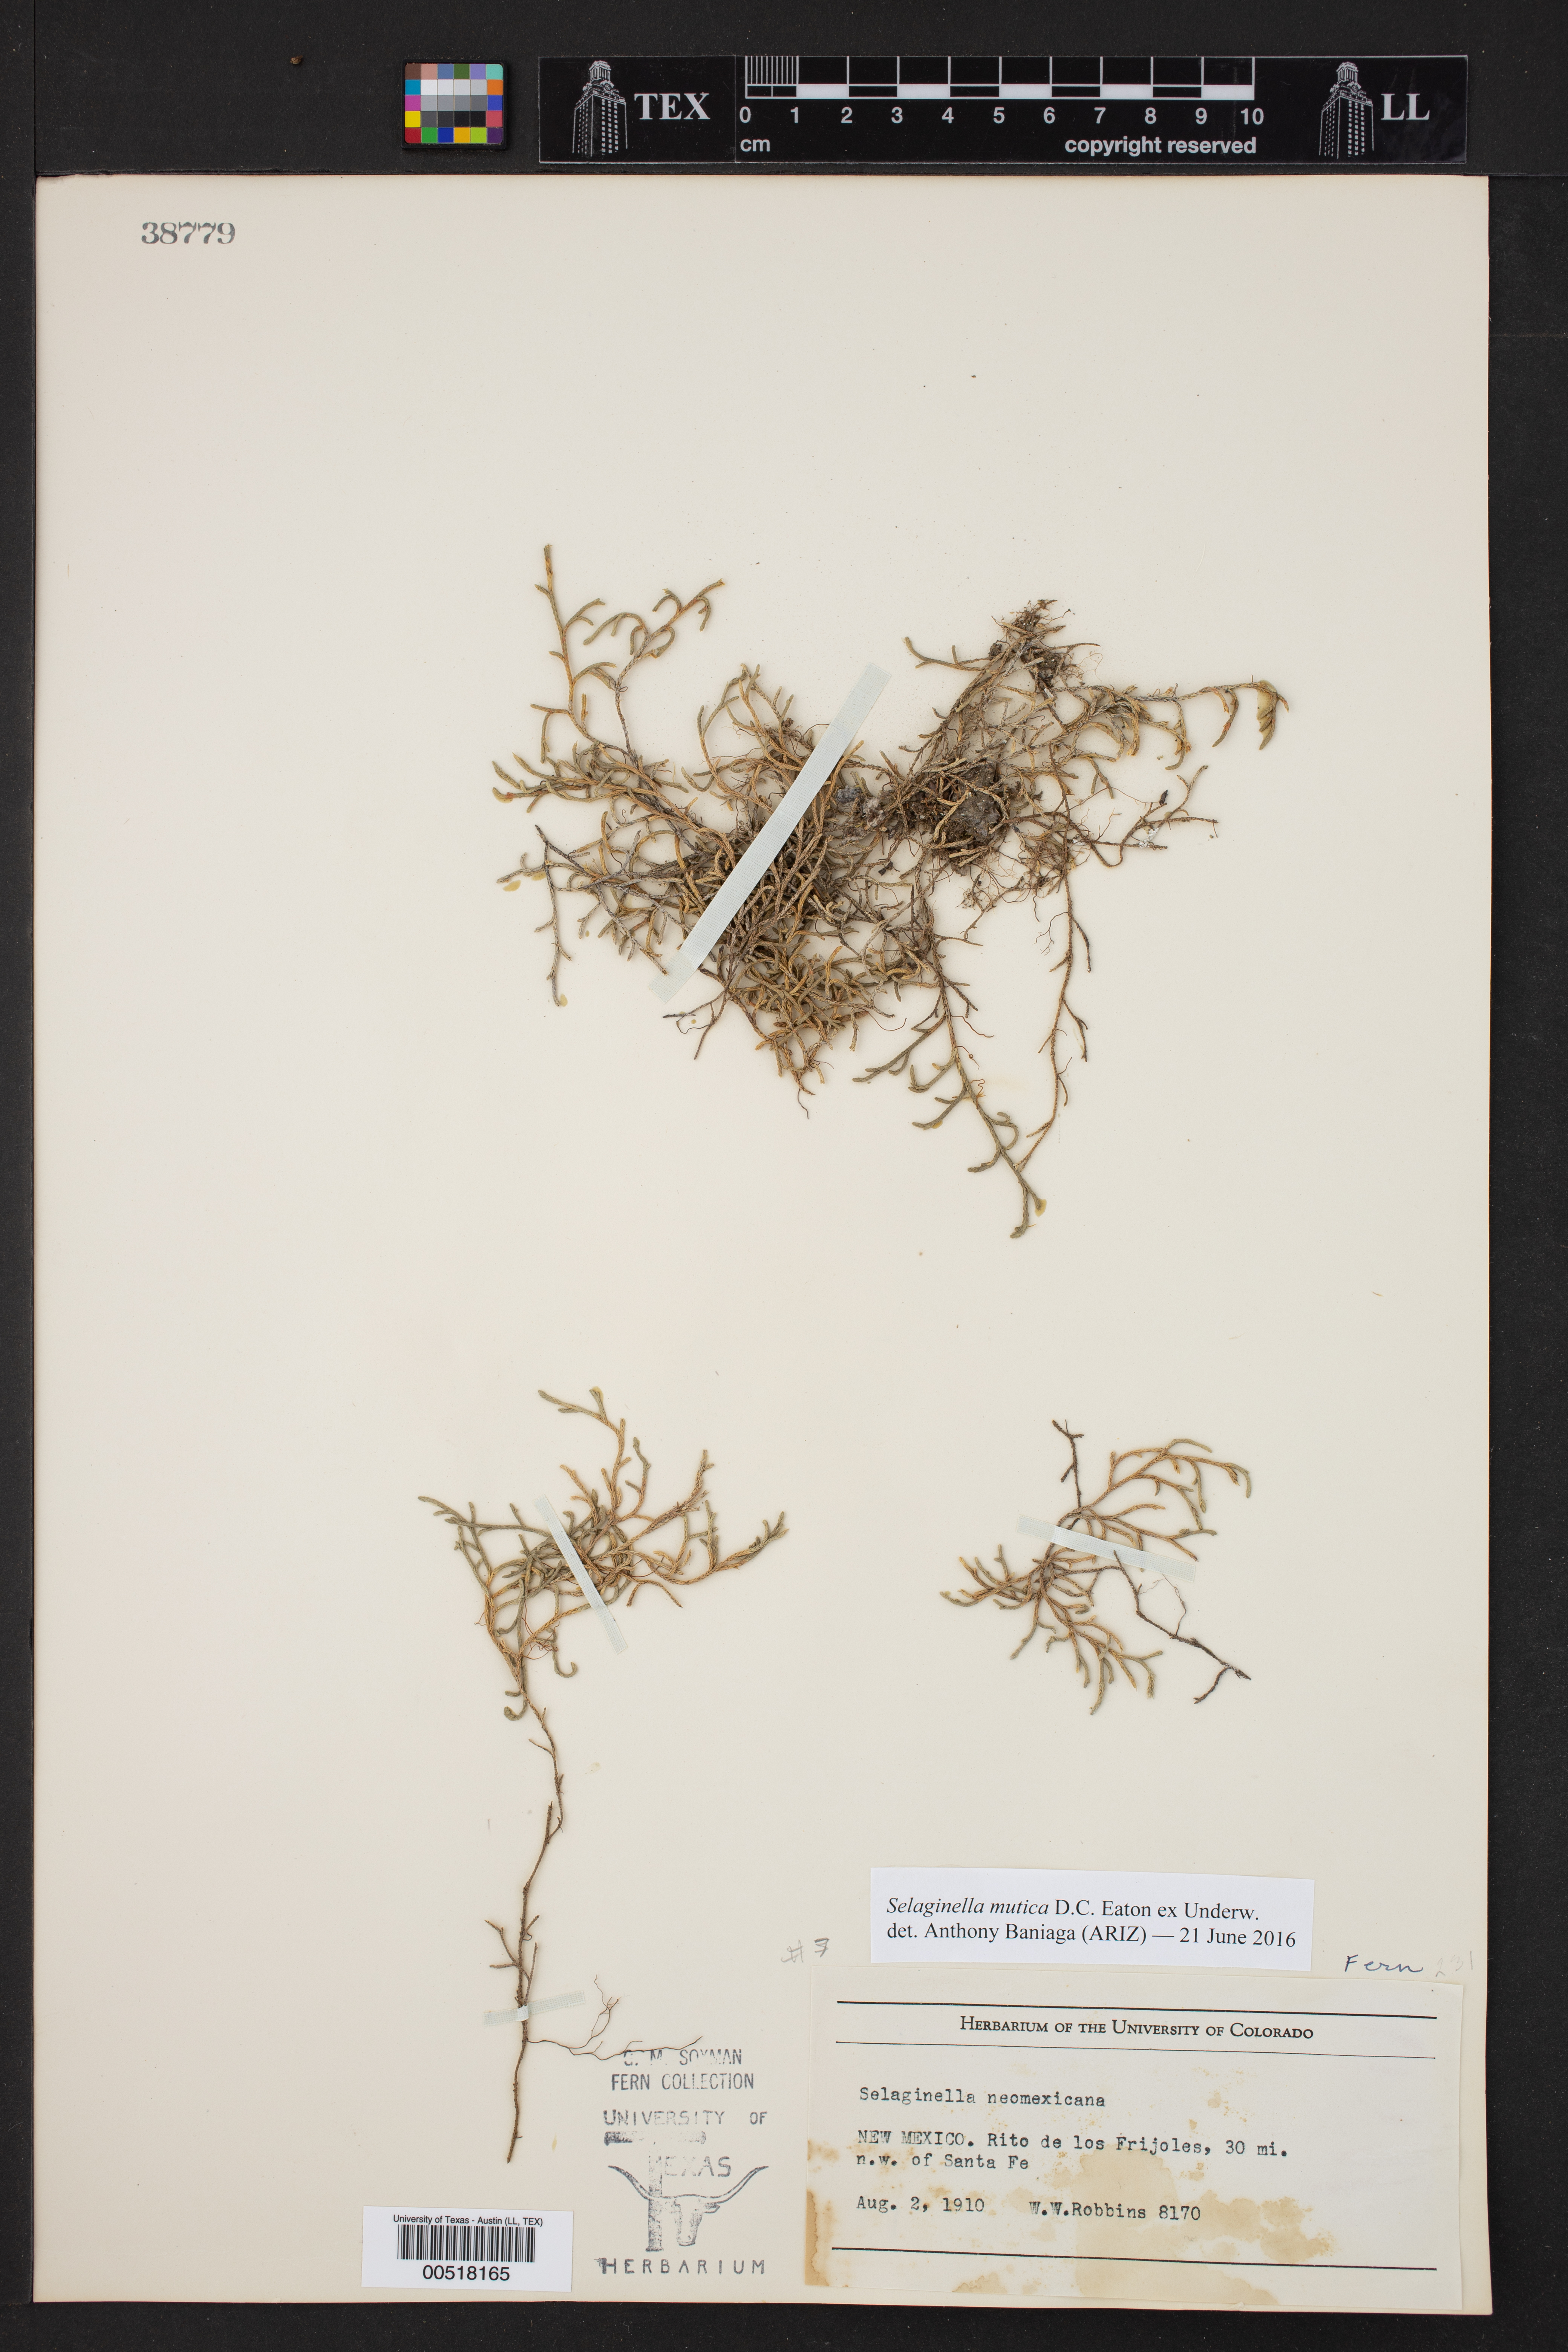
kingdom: Plantae
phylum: Tracheophyta
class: Lycopodiopsida
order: Selaginellales
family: Selaginellaceae
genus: Selaginella
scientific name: Selaginella mutica
